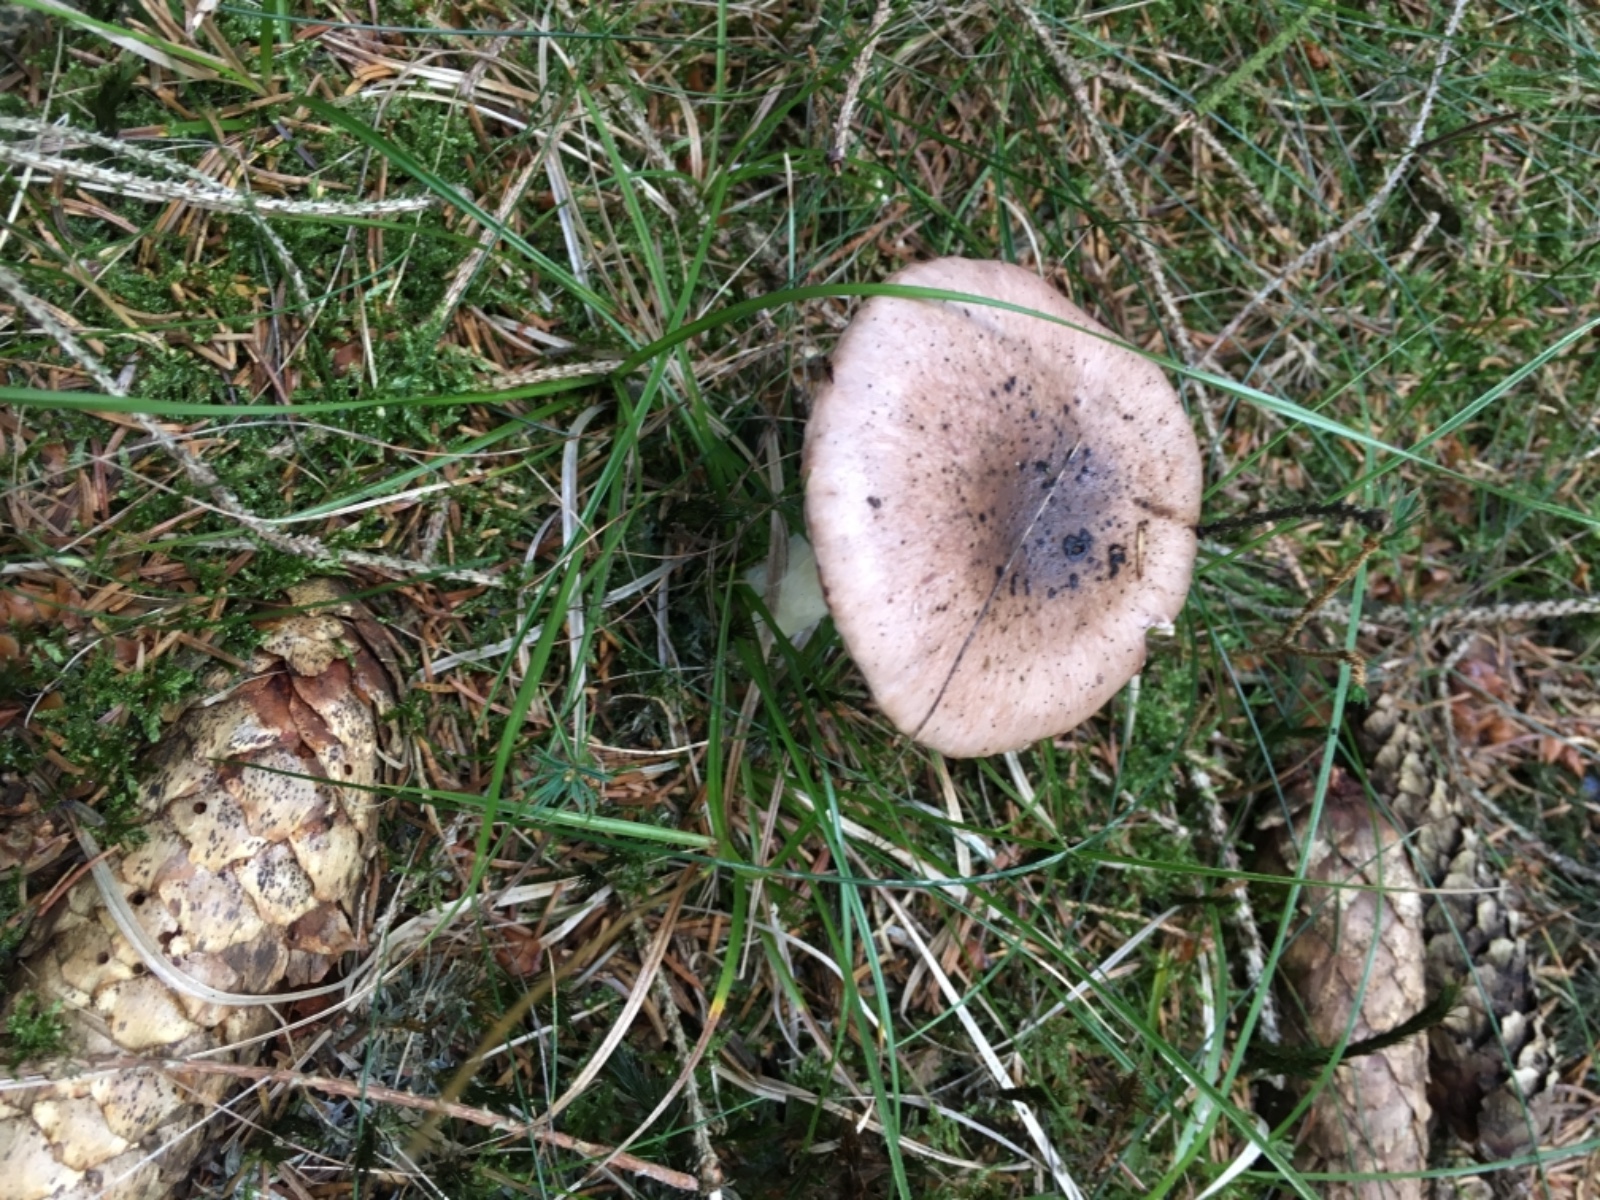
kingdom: Fungi
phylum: Basidiomycota
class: Agaricomycetes
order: Boletales
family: Gomphidiaceae
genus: Gomphidius
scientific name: Gomphidius glutinosus
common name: grå slimslør
